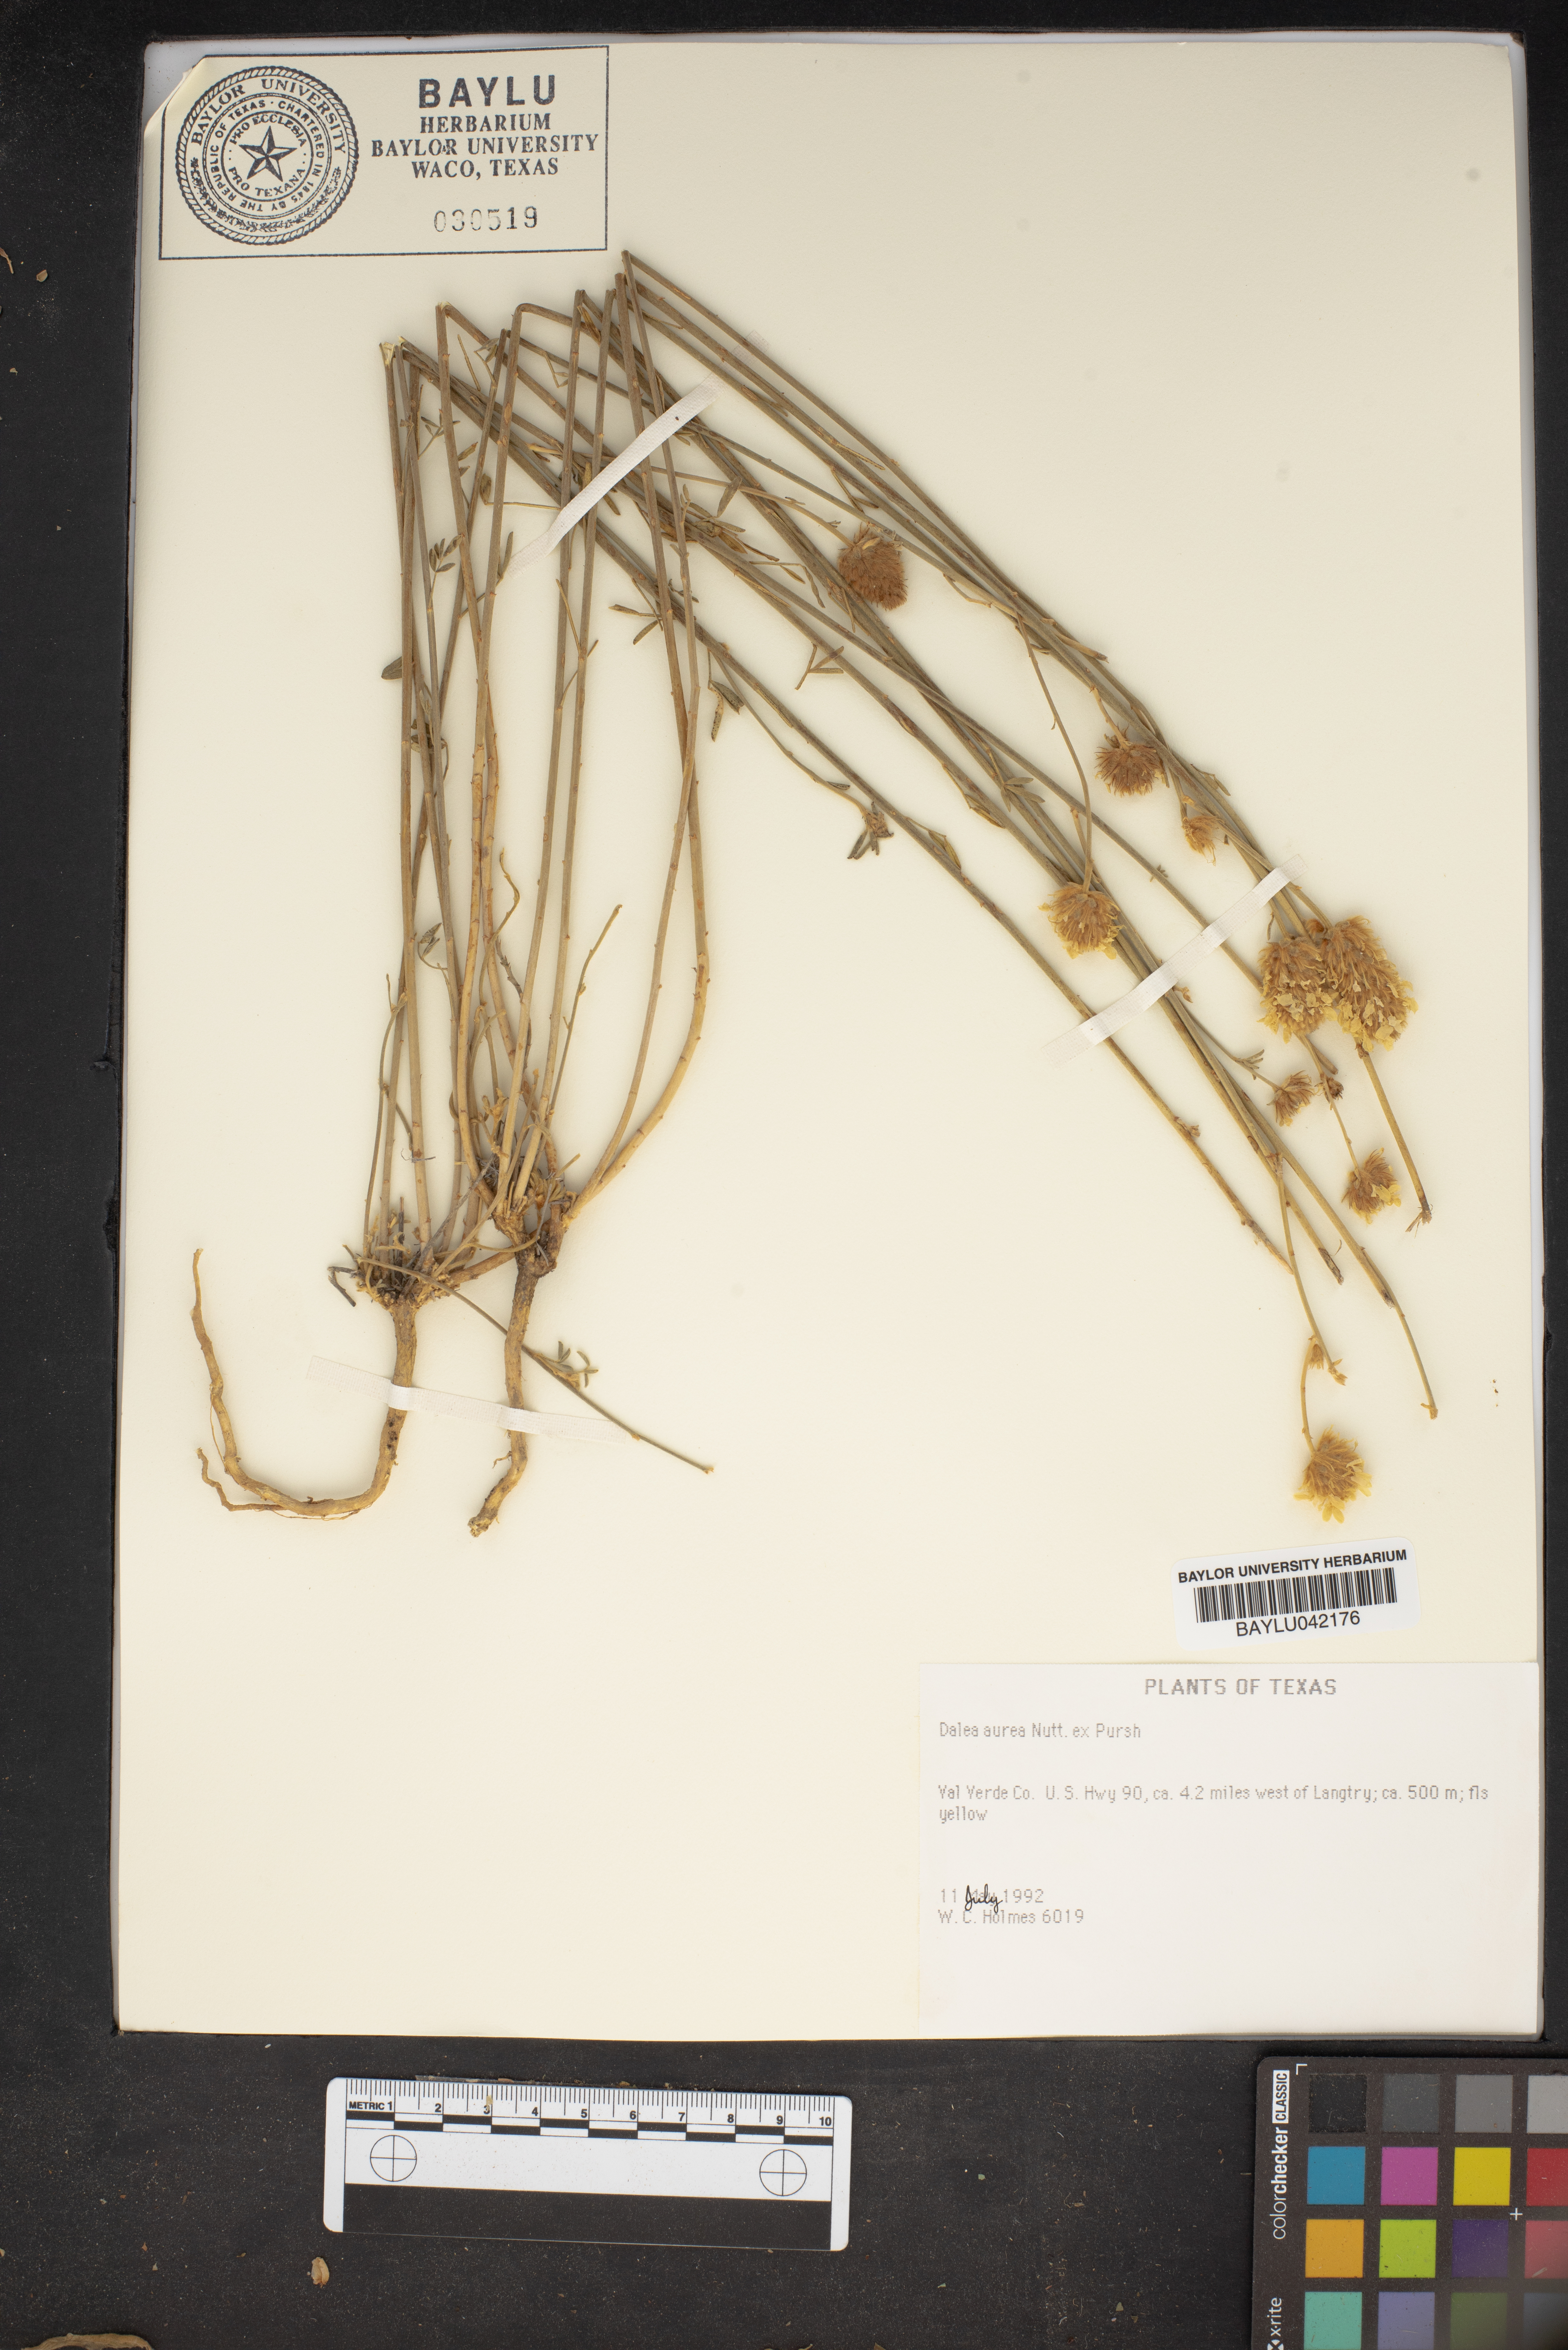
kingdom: Plantae
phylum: Tracheophyta
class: Magnoliopsida
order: Fabales
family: Fabaceae
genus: Dalea
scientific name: Dalea aurea
